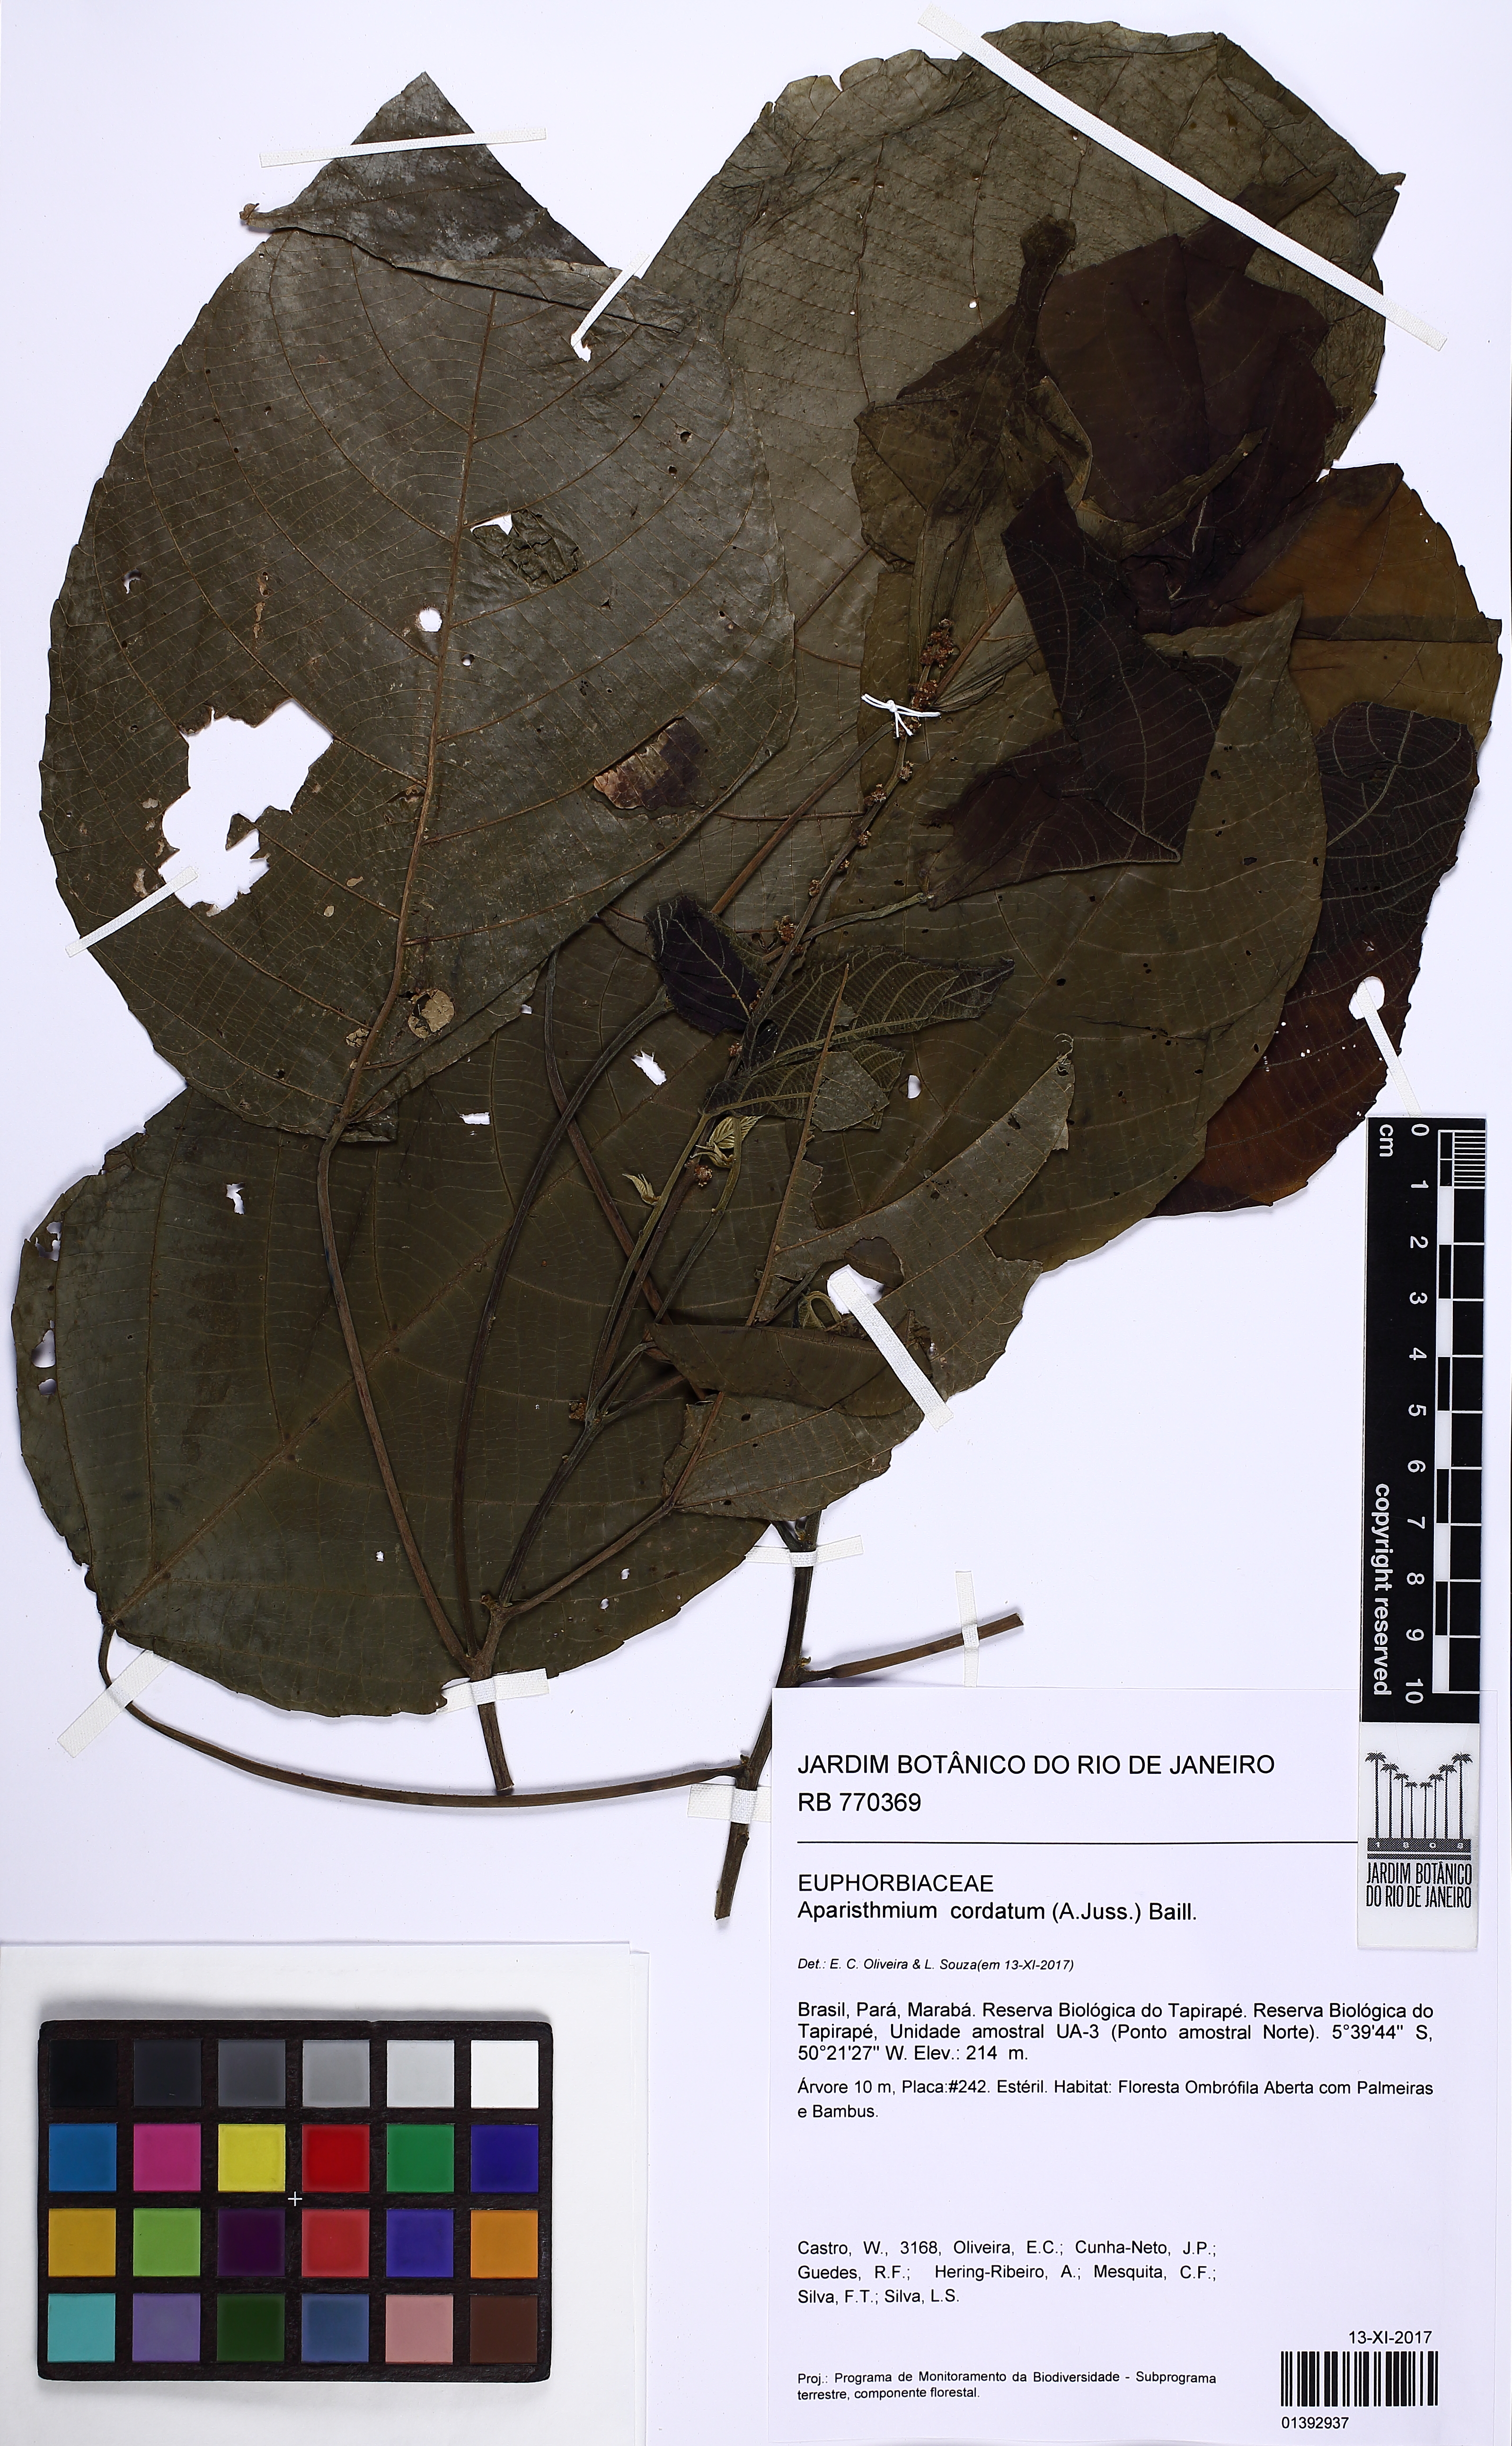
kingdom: Plantae
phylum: Tracheophyta
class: Magnoliopsida
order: Malpighiales
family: Euphorbiaceae
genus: Aparisthmium
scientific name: Aparisthmium cordatum
